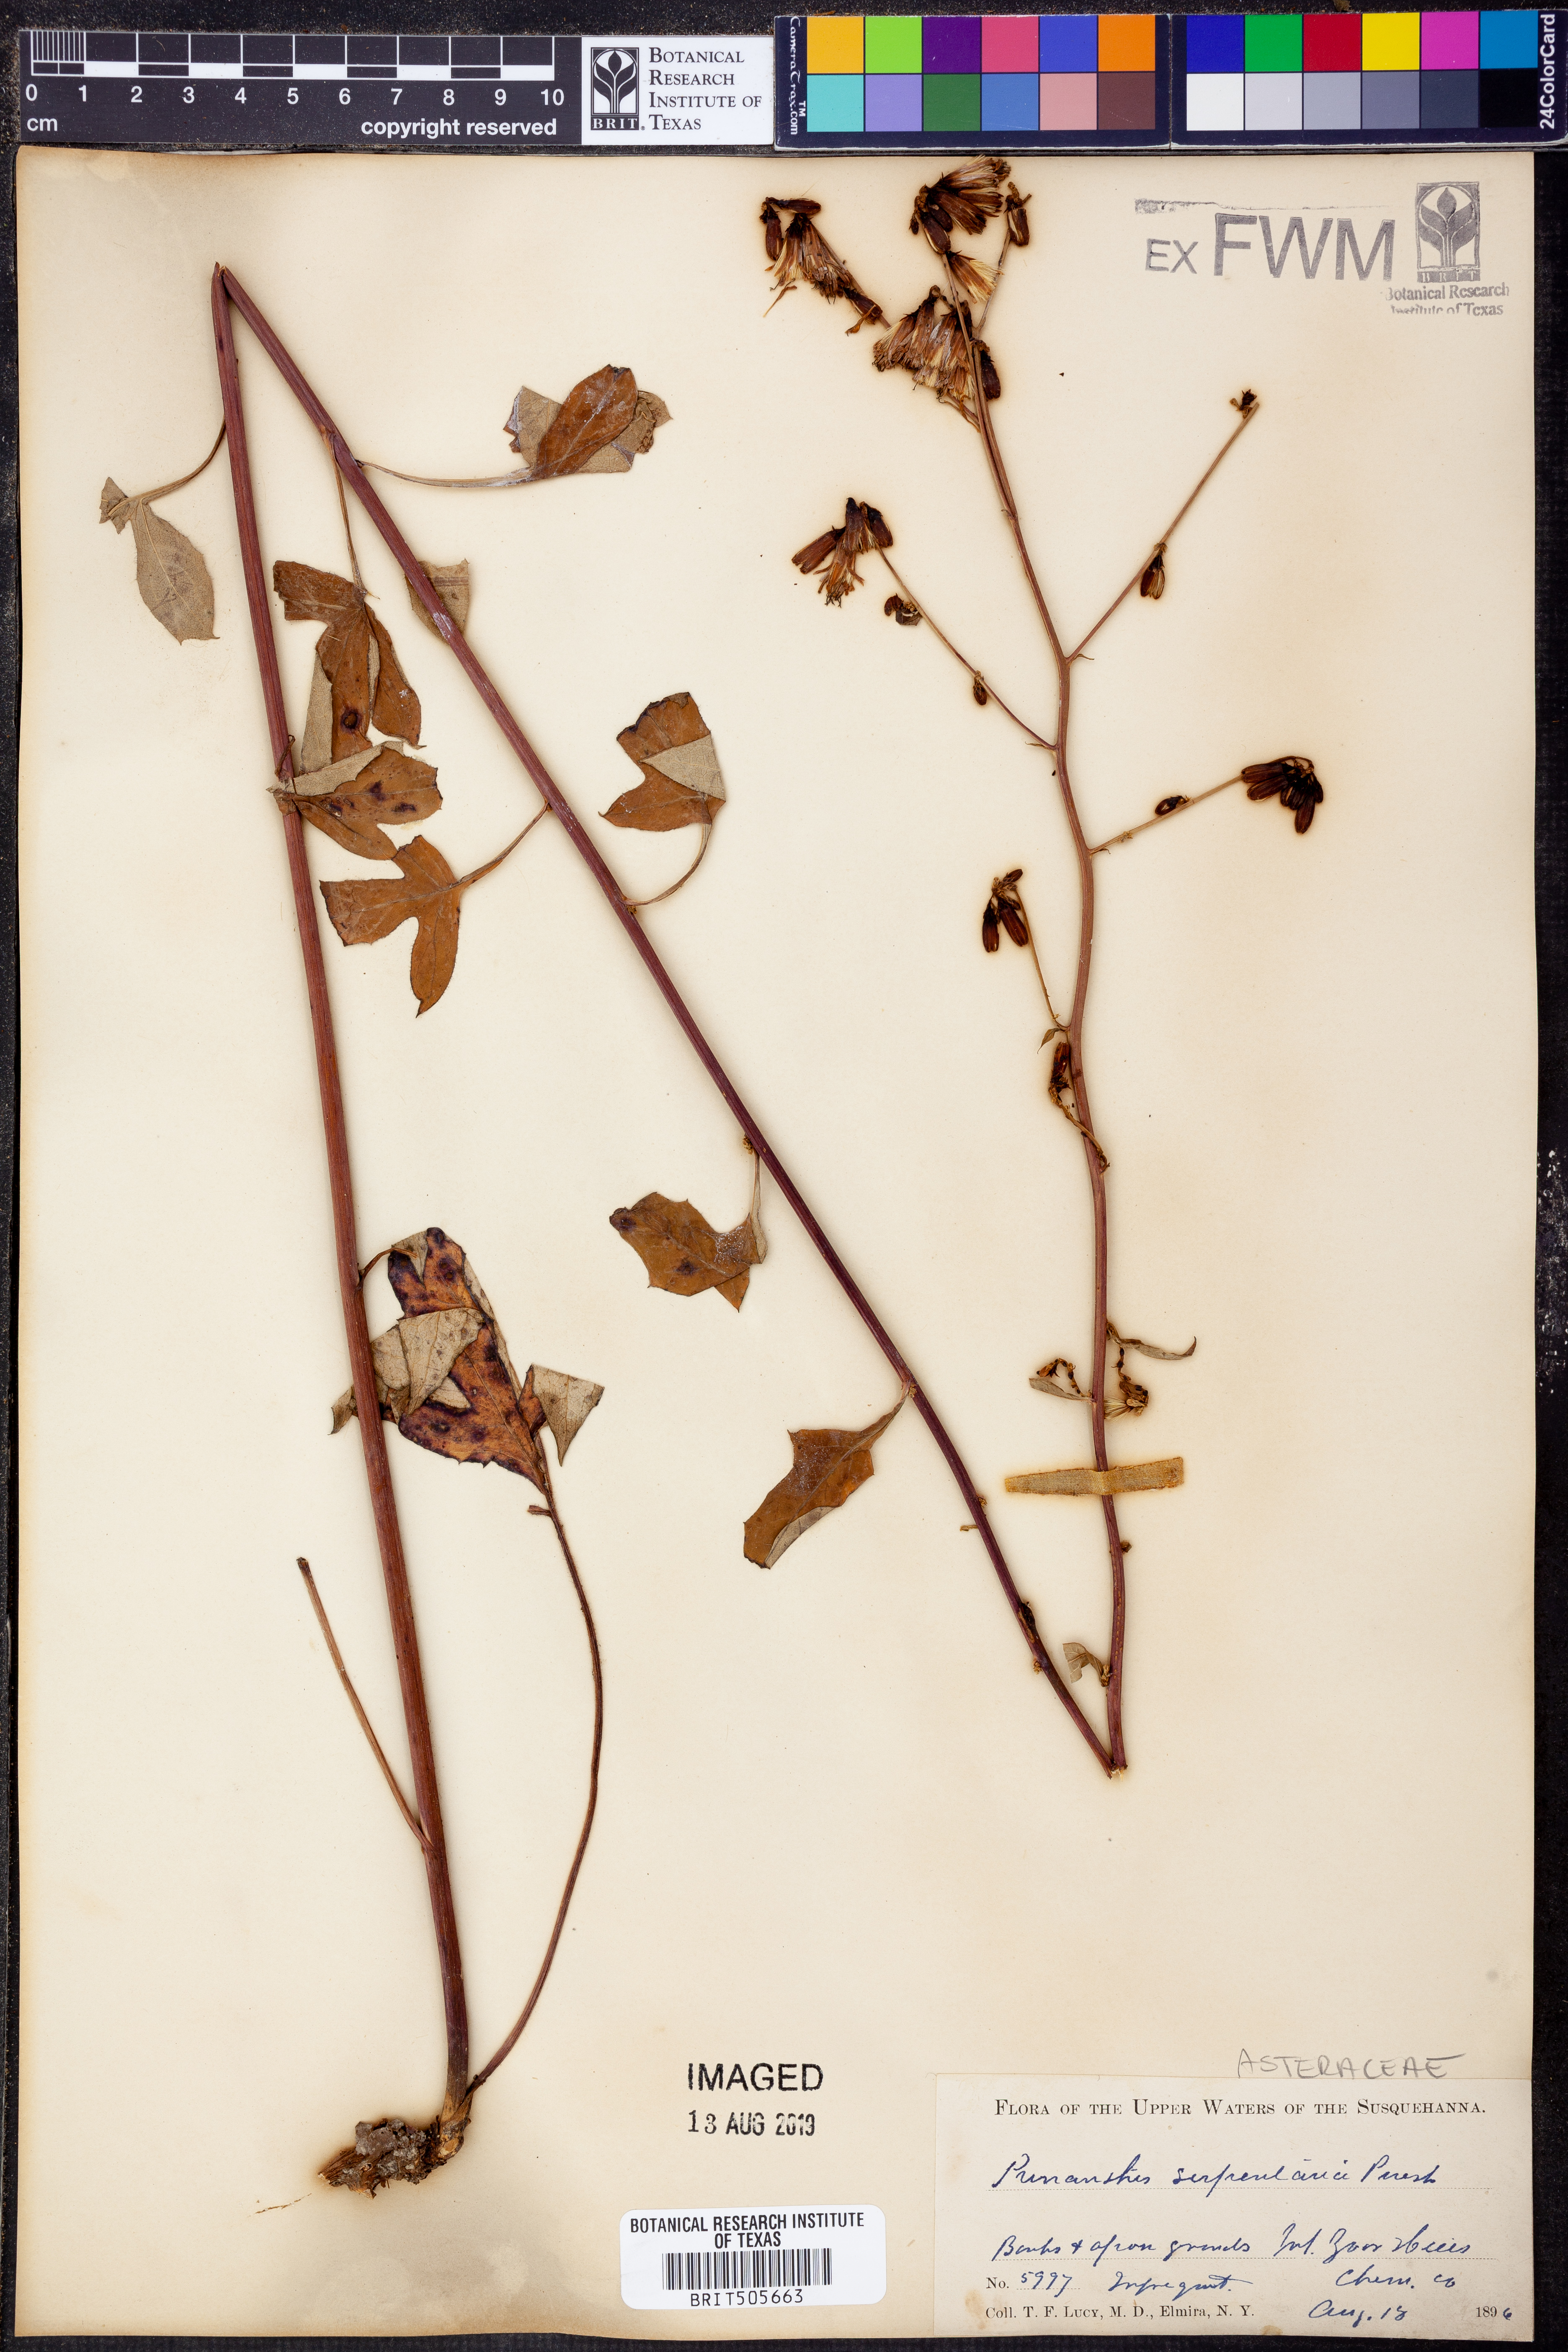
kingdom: Plantae
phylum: Tracheophyta
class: Magnoliopsida
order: Asterales
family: Asteraceae
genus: Nabalus
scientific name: Nabalus serpentarius
